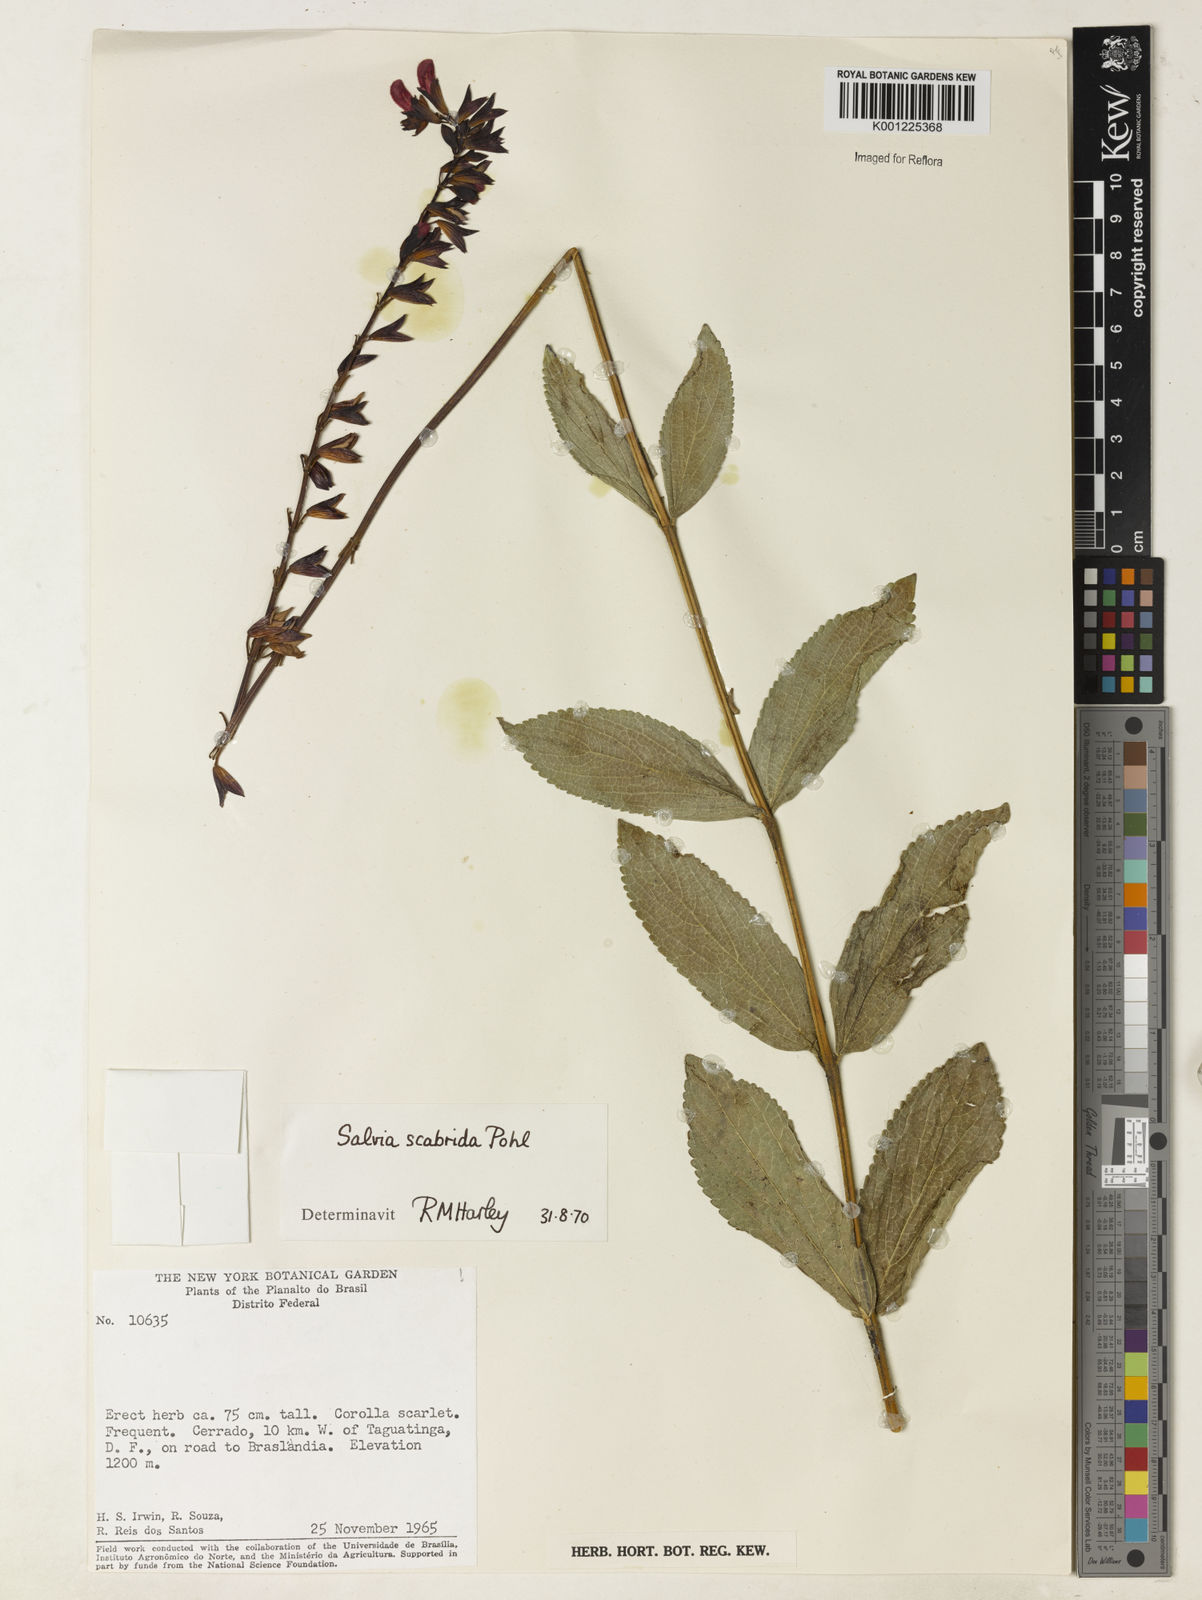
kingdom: Plantae
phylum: Tracheophyta
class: Magnoliopsida
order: Lamiales
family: Lamiaceae
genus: Salvia
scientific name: Salvia scabrida
